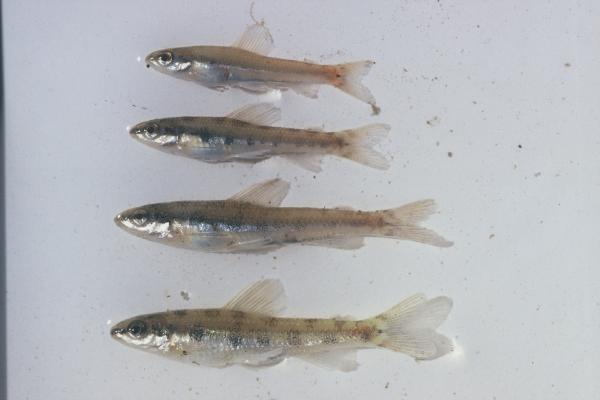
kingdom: Animalia
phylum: Chordata
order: Characiformes
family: Distichodontidae
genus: Nannocharax
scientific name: Nannocharax macropterus
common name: Broad-barred citharine
